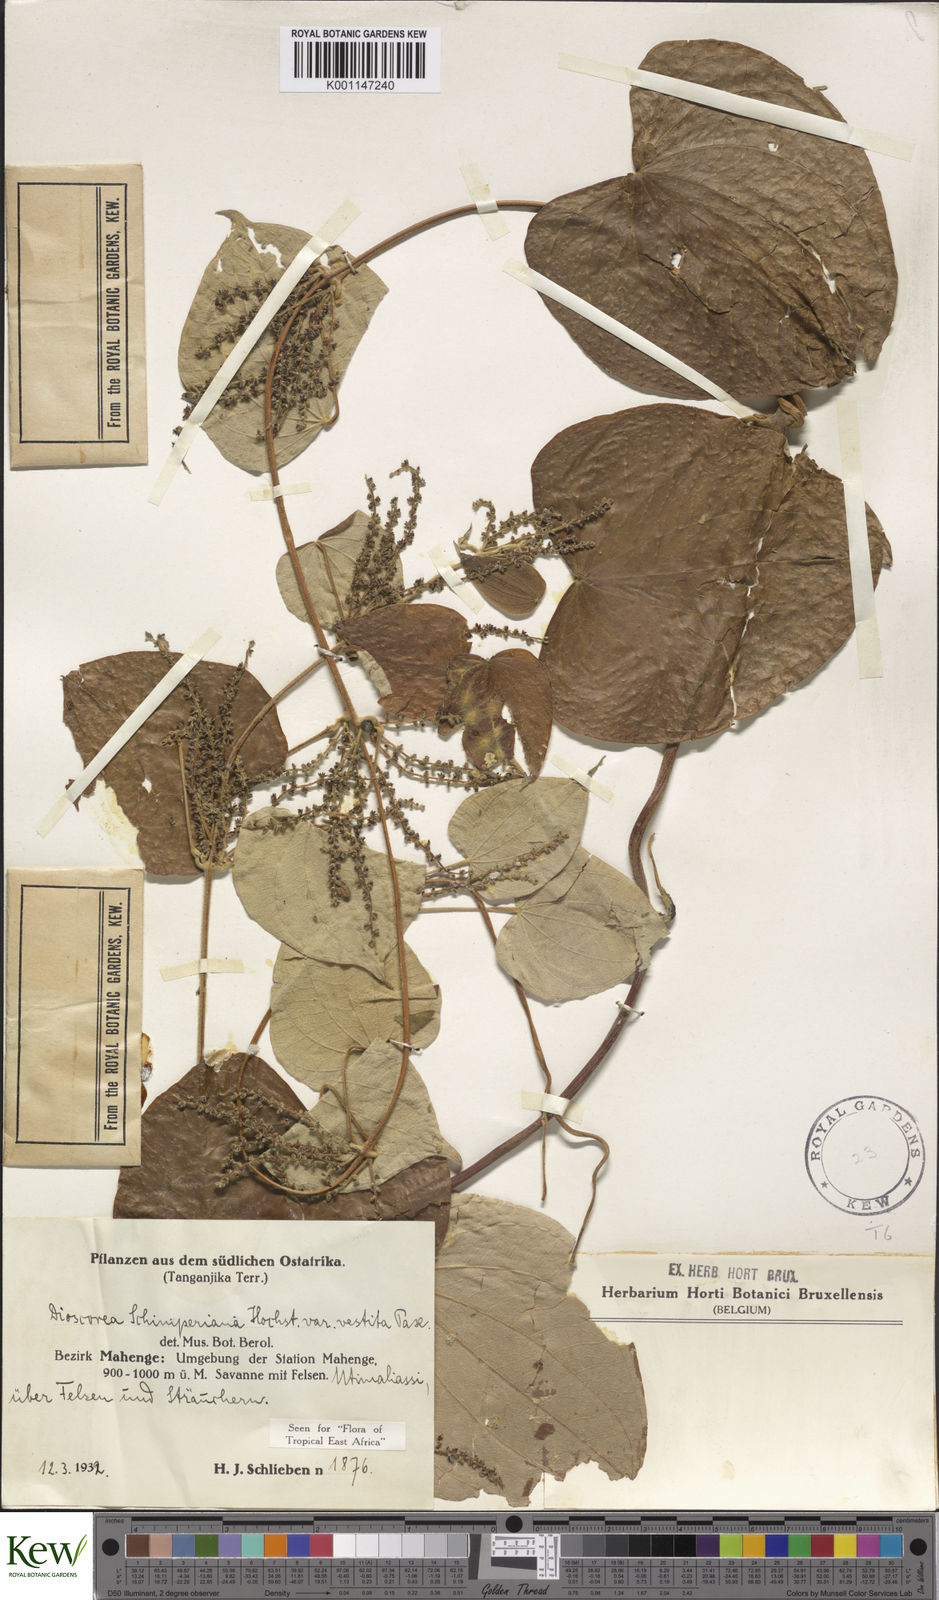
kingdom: Plantae
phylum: Tracheophyta
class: Liliopsida
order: Dioscoreales
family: Dioscoreaceae
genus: Dioscorea
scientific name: Dioscorea schimperiana
